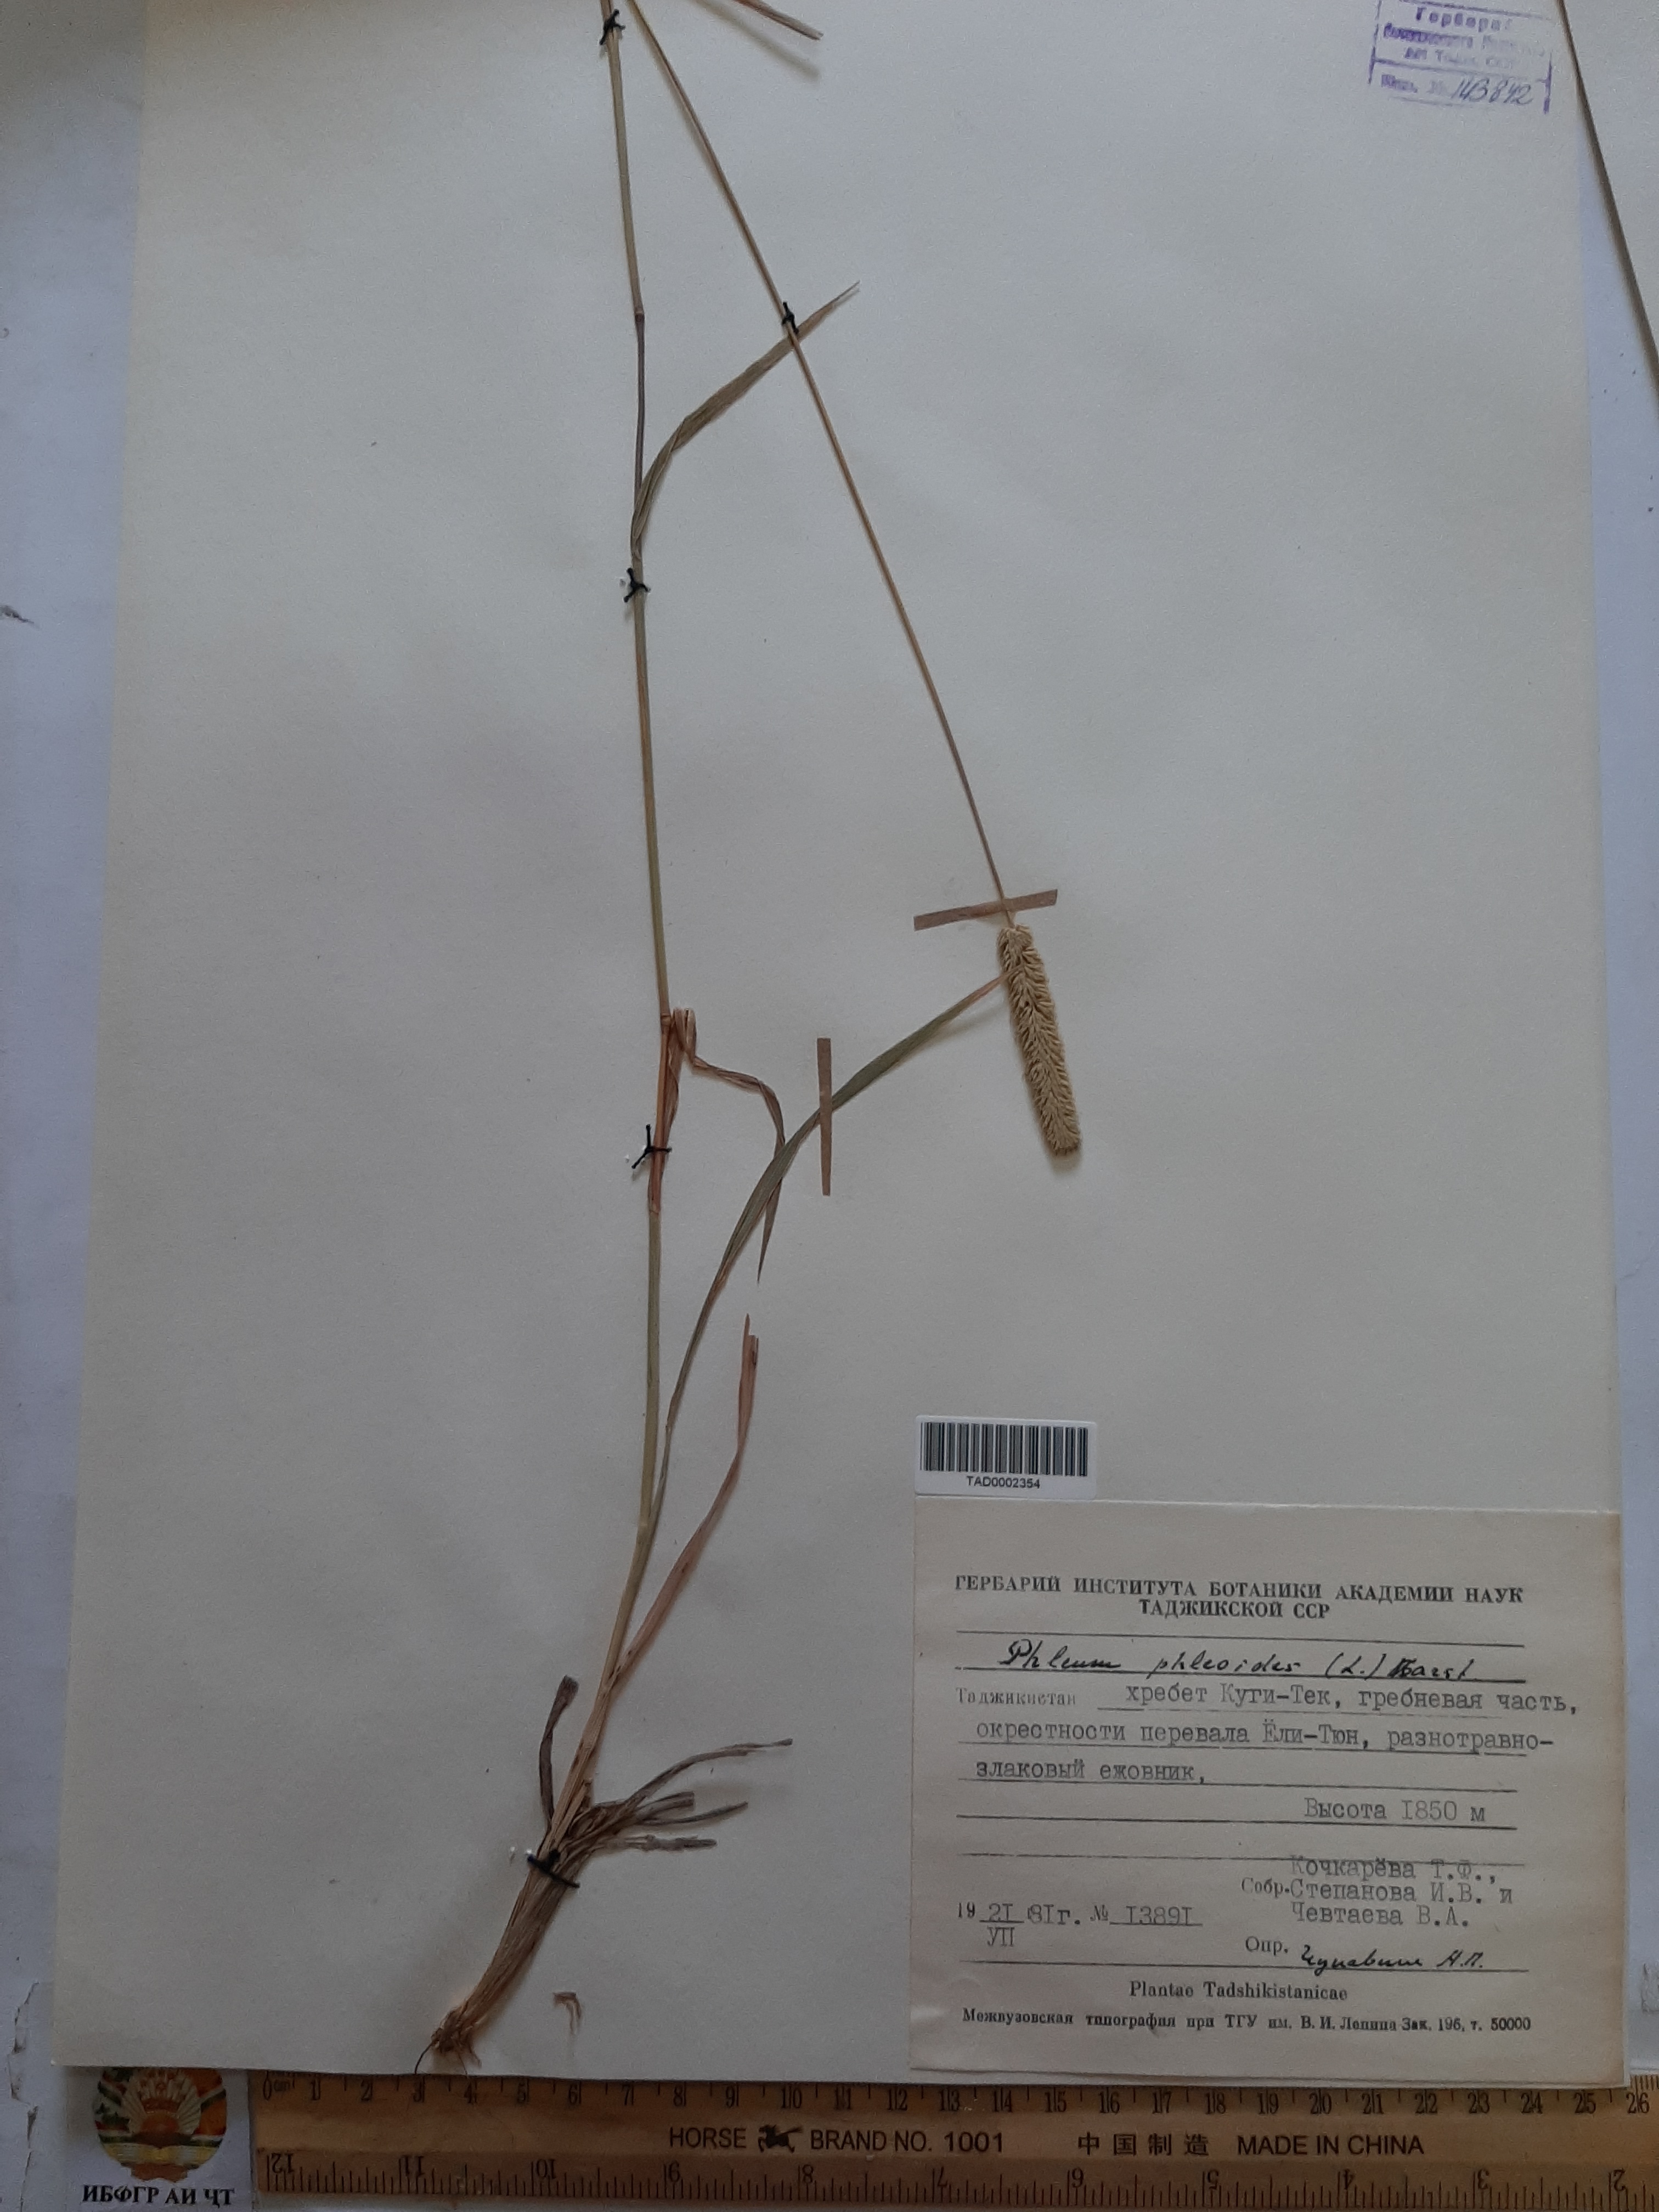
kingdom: Plantae
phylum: Tracheophyta
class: Liliopsida
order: Poales
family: Poaceae
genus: Phleum
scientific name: Phleum phleoides
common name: Purple-stem cat's-tail
